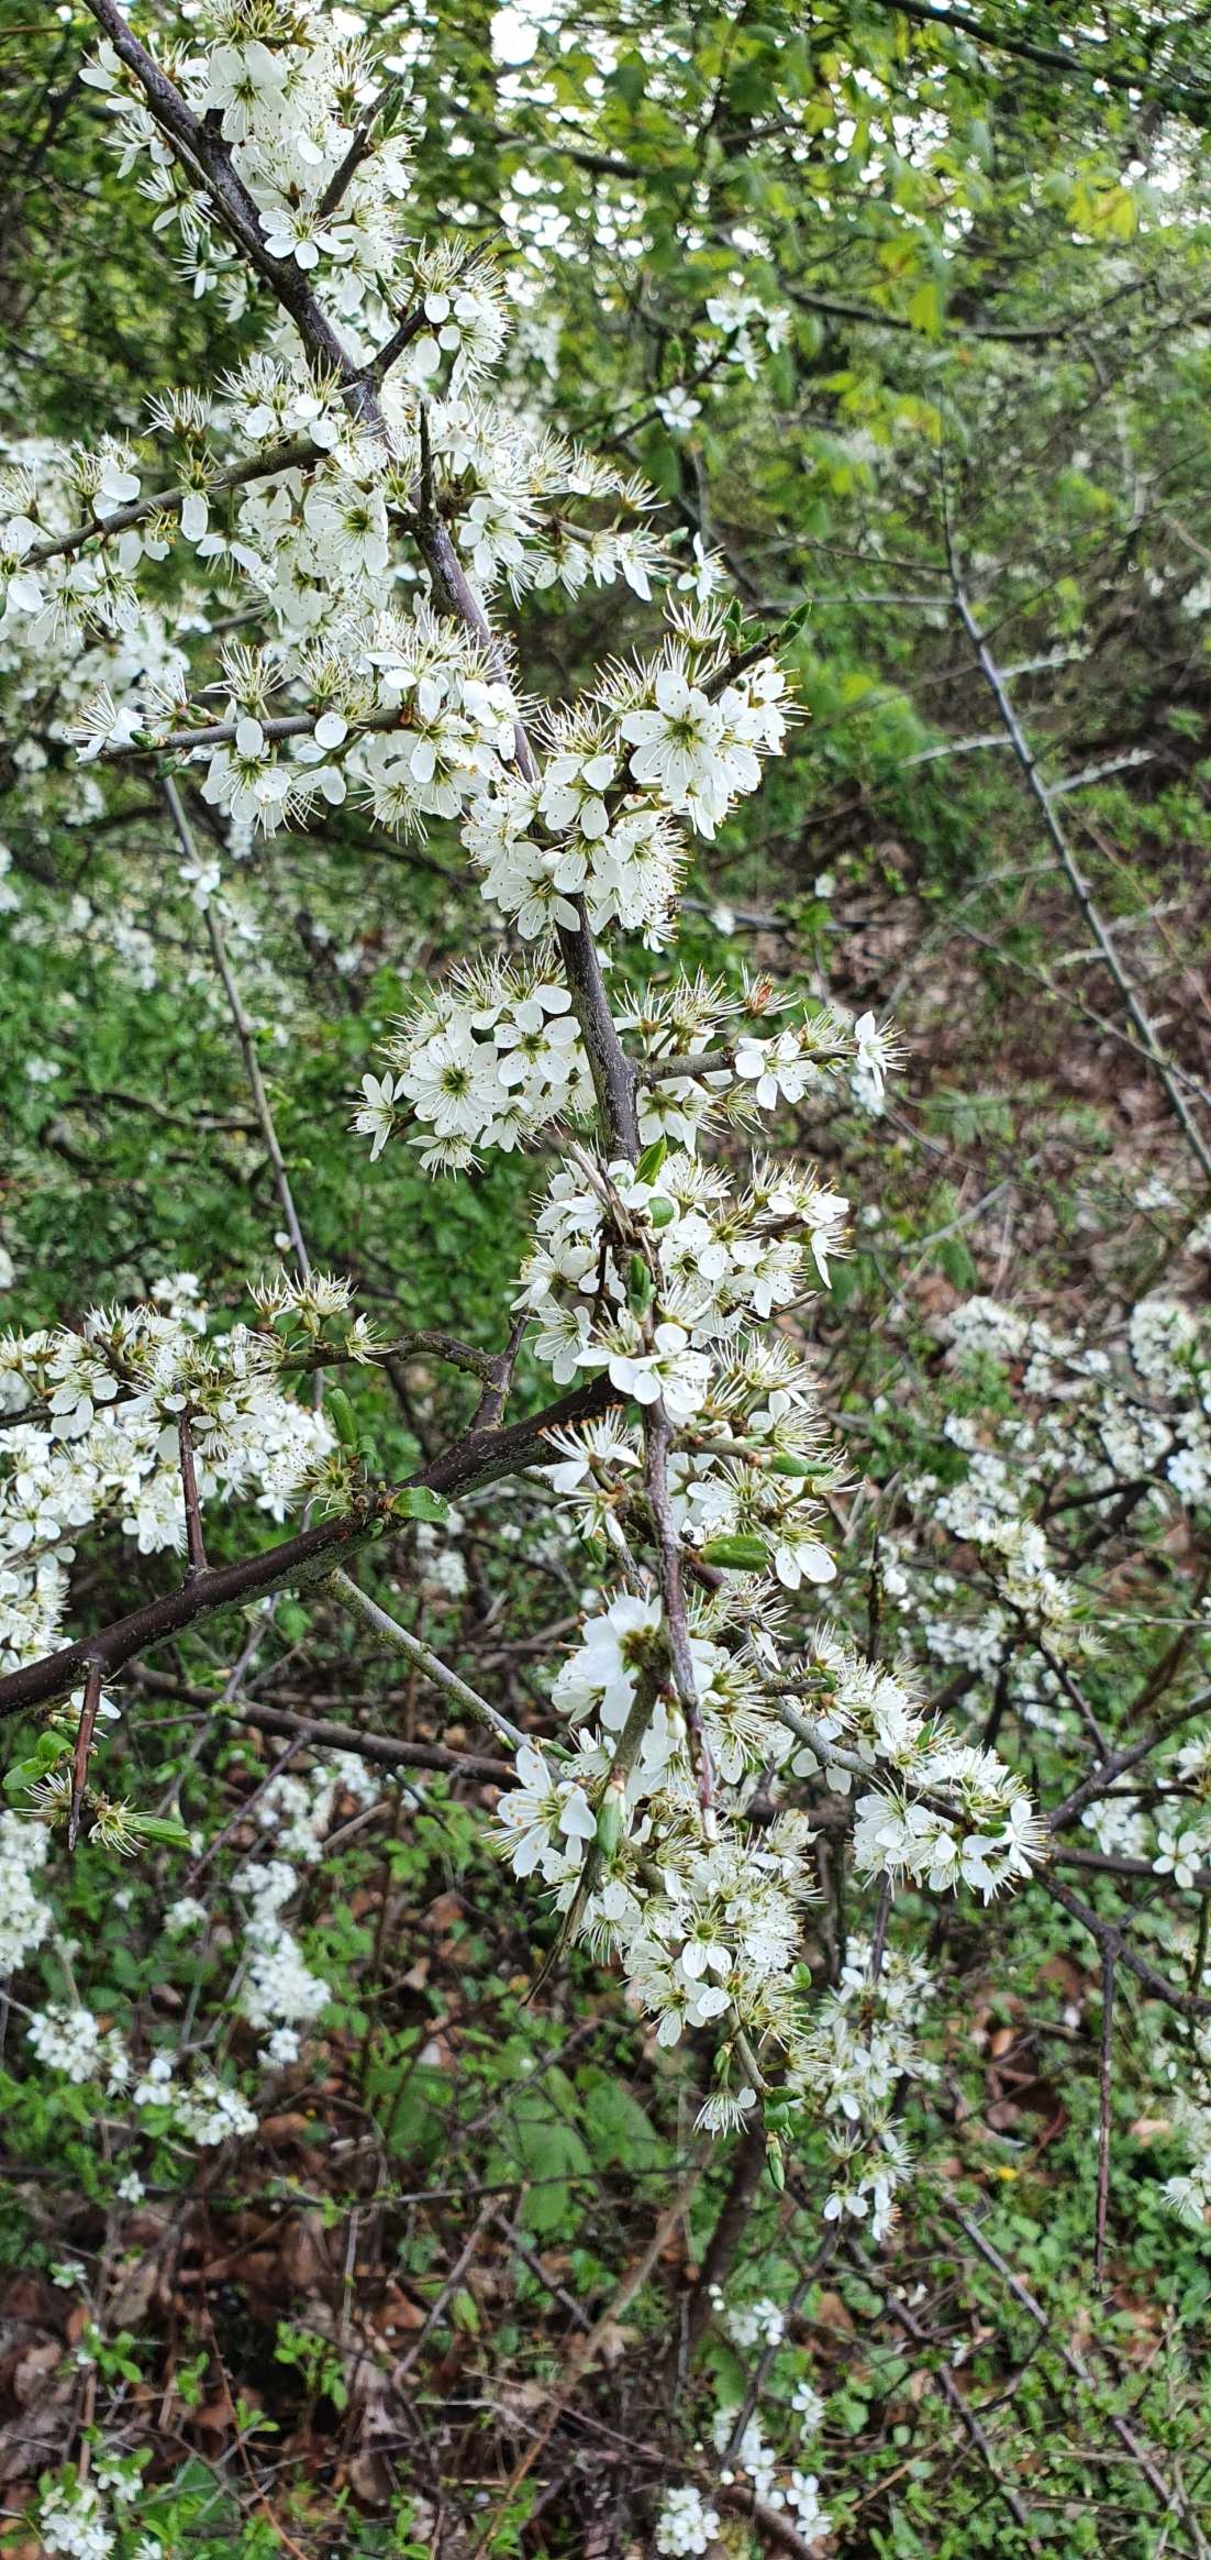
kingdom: Plantae
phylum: Tracheophyta
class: Magnoliopsida
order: Rosales
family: Rosaceae
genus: Prunus
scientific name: Prunus spinosa
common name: Slåen
